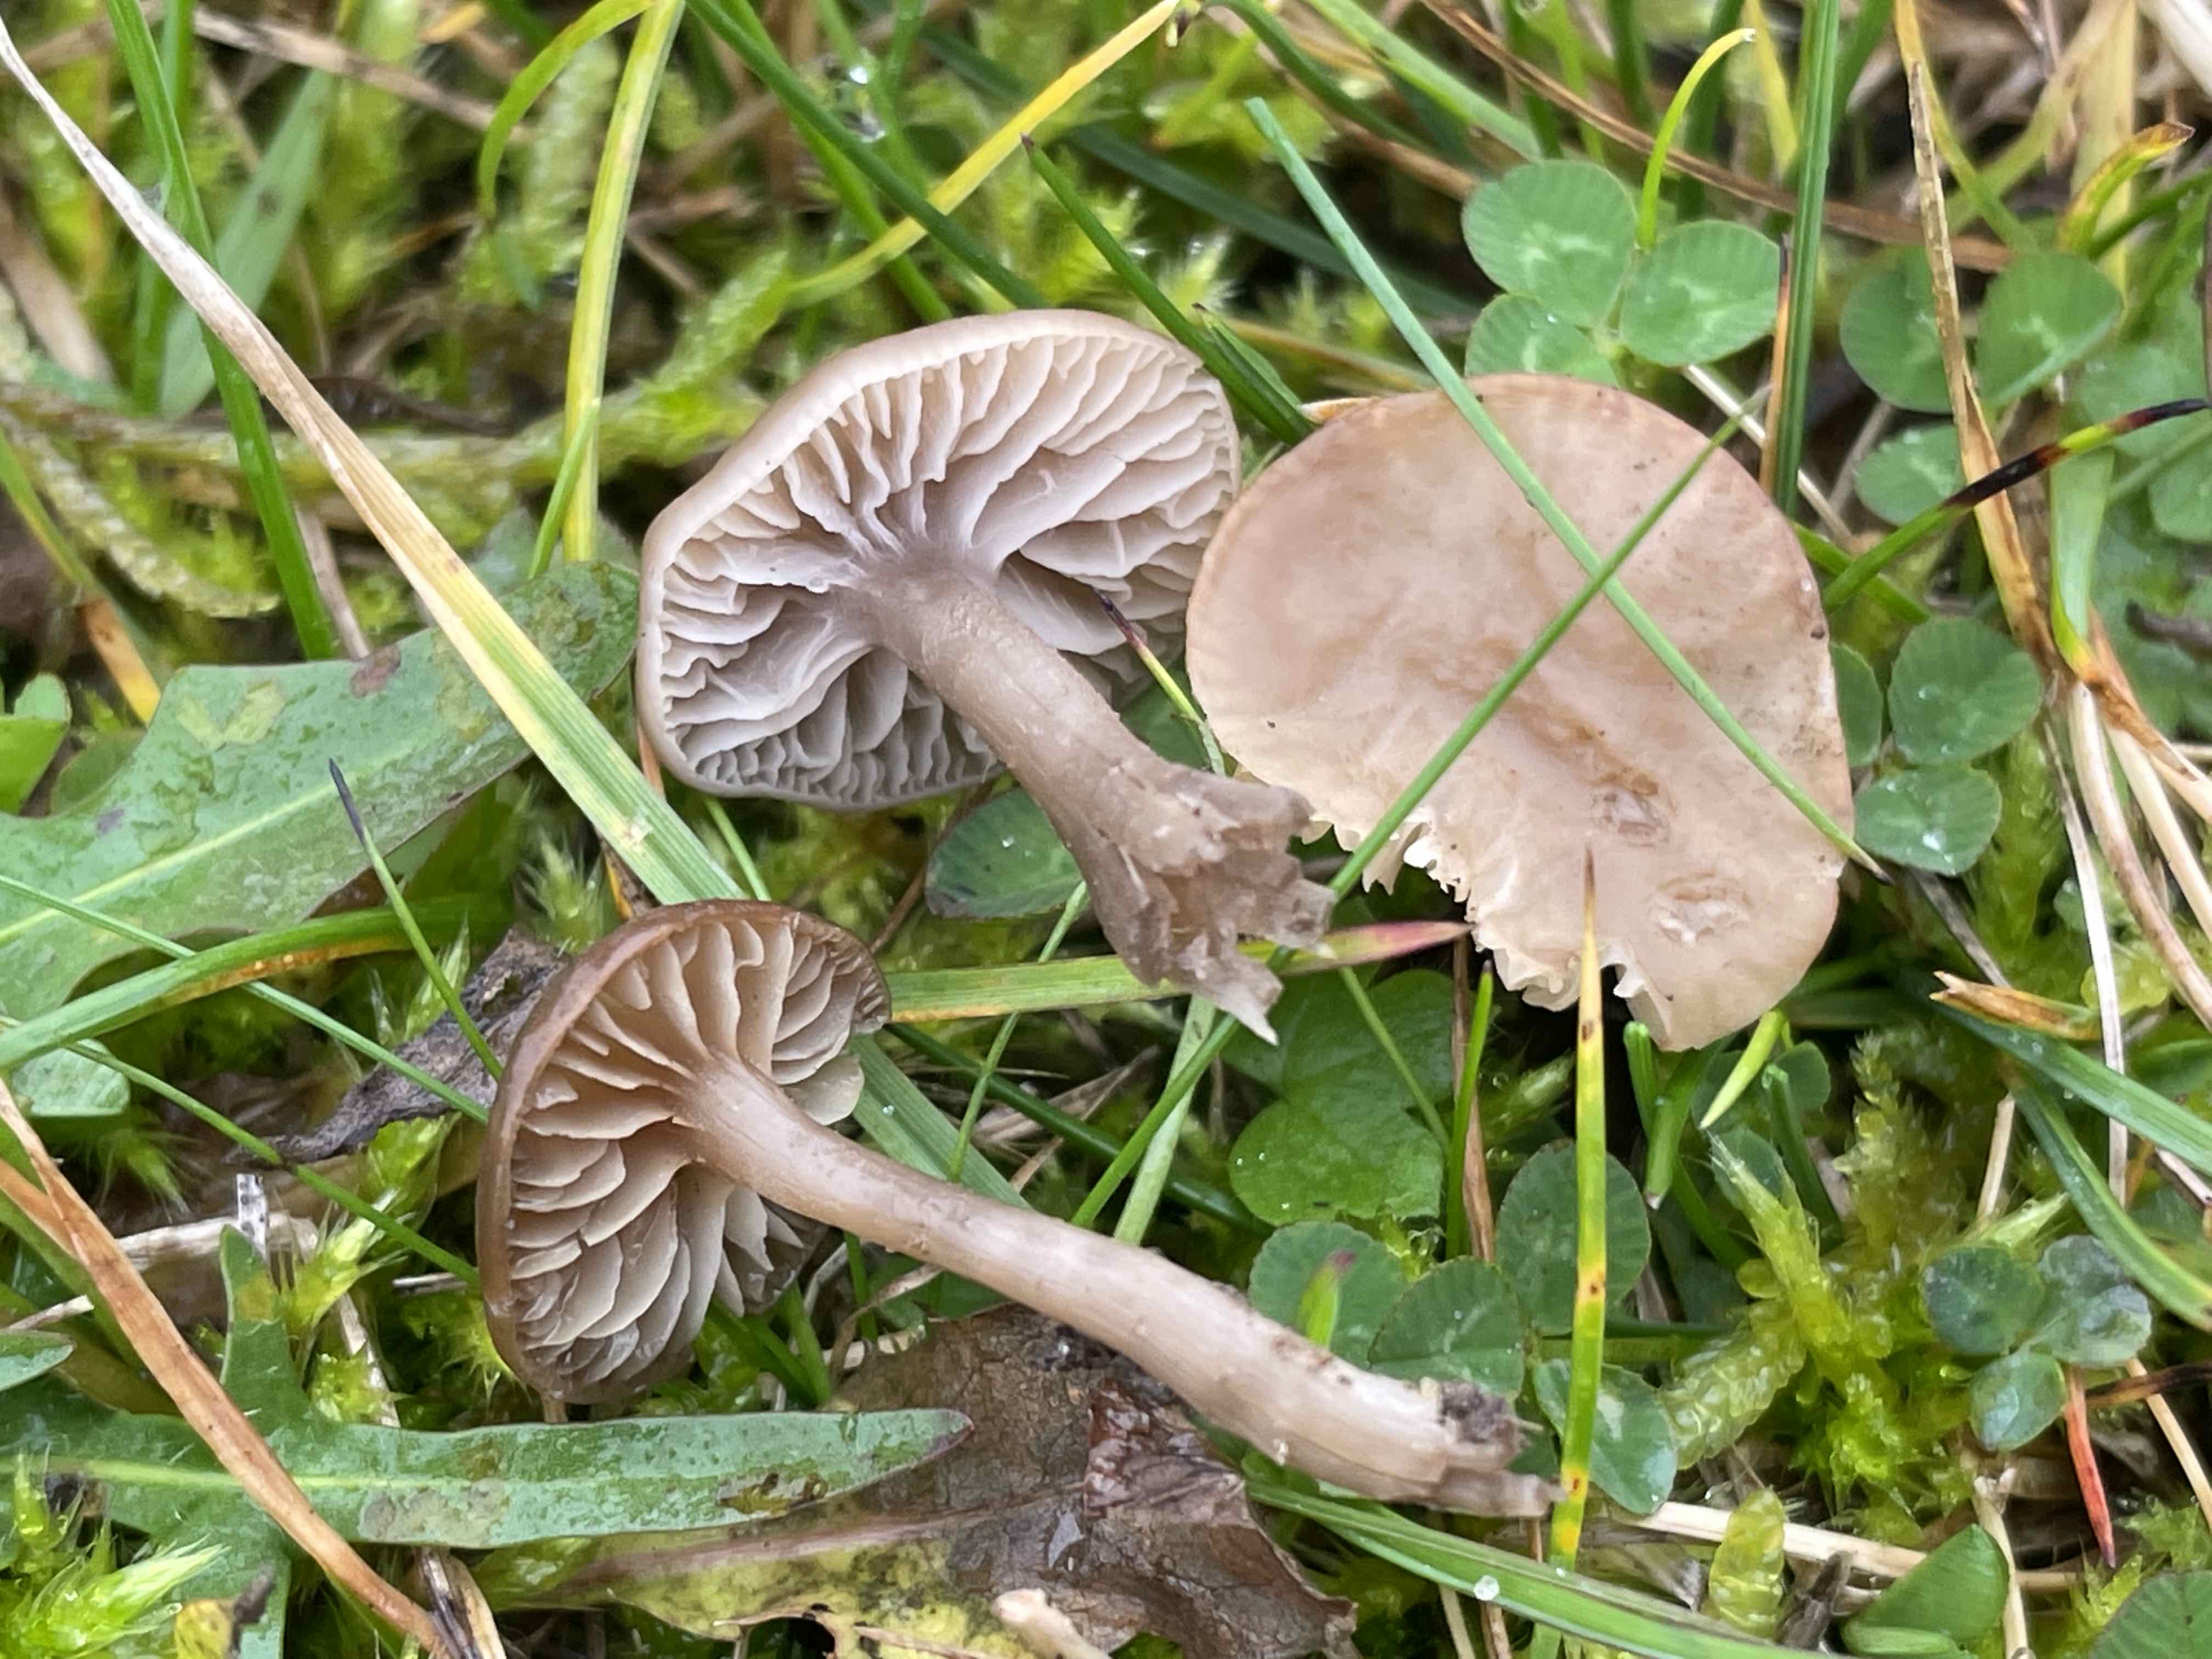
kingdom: Fungi
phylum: Basidiomycota
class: Agaricomycetes
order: Agaricales
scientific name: Agaricales
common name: champignonordenen
